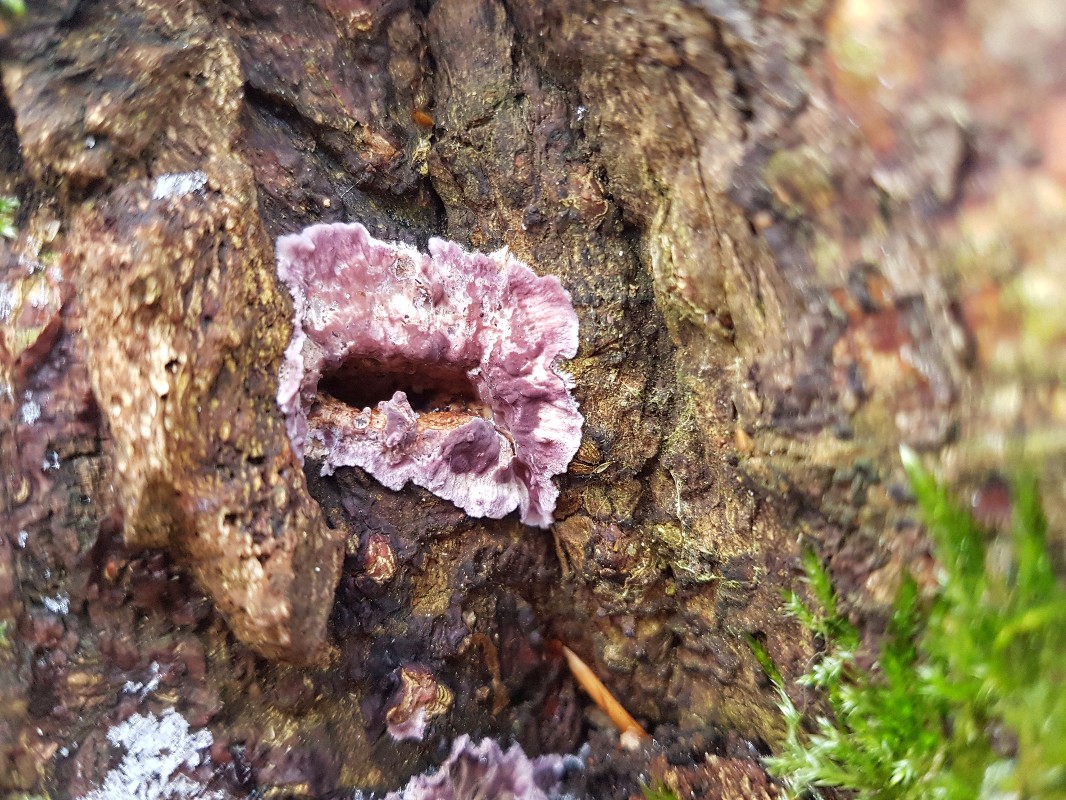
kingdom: Fungi
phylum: Basidiomycota
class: Agaricomycetes
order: Agaricales
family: Cyphellaceae
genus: Chondrostereum
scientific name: Chondrostereum purpureum
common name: purpurlædersvamp
